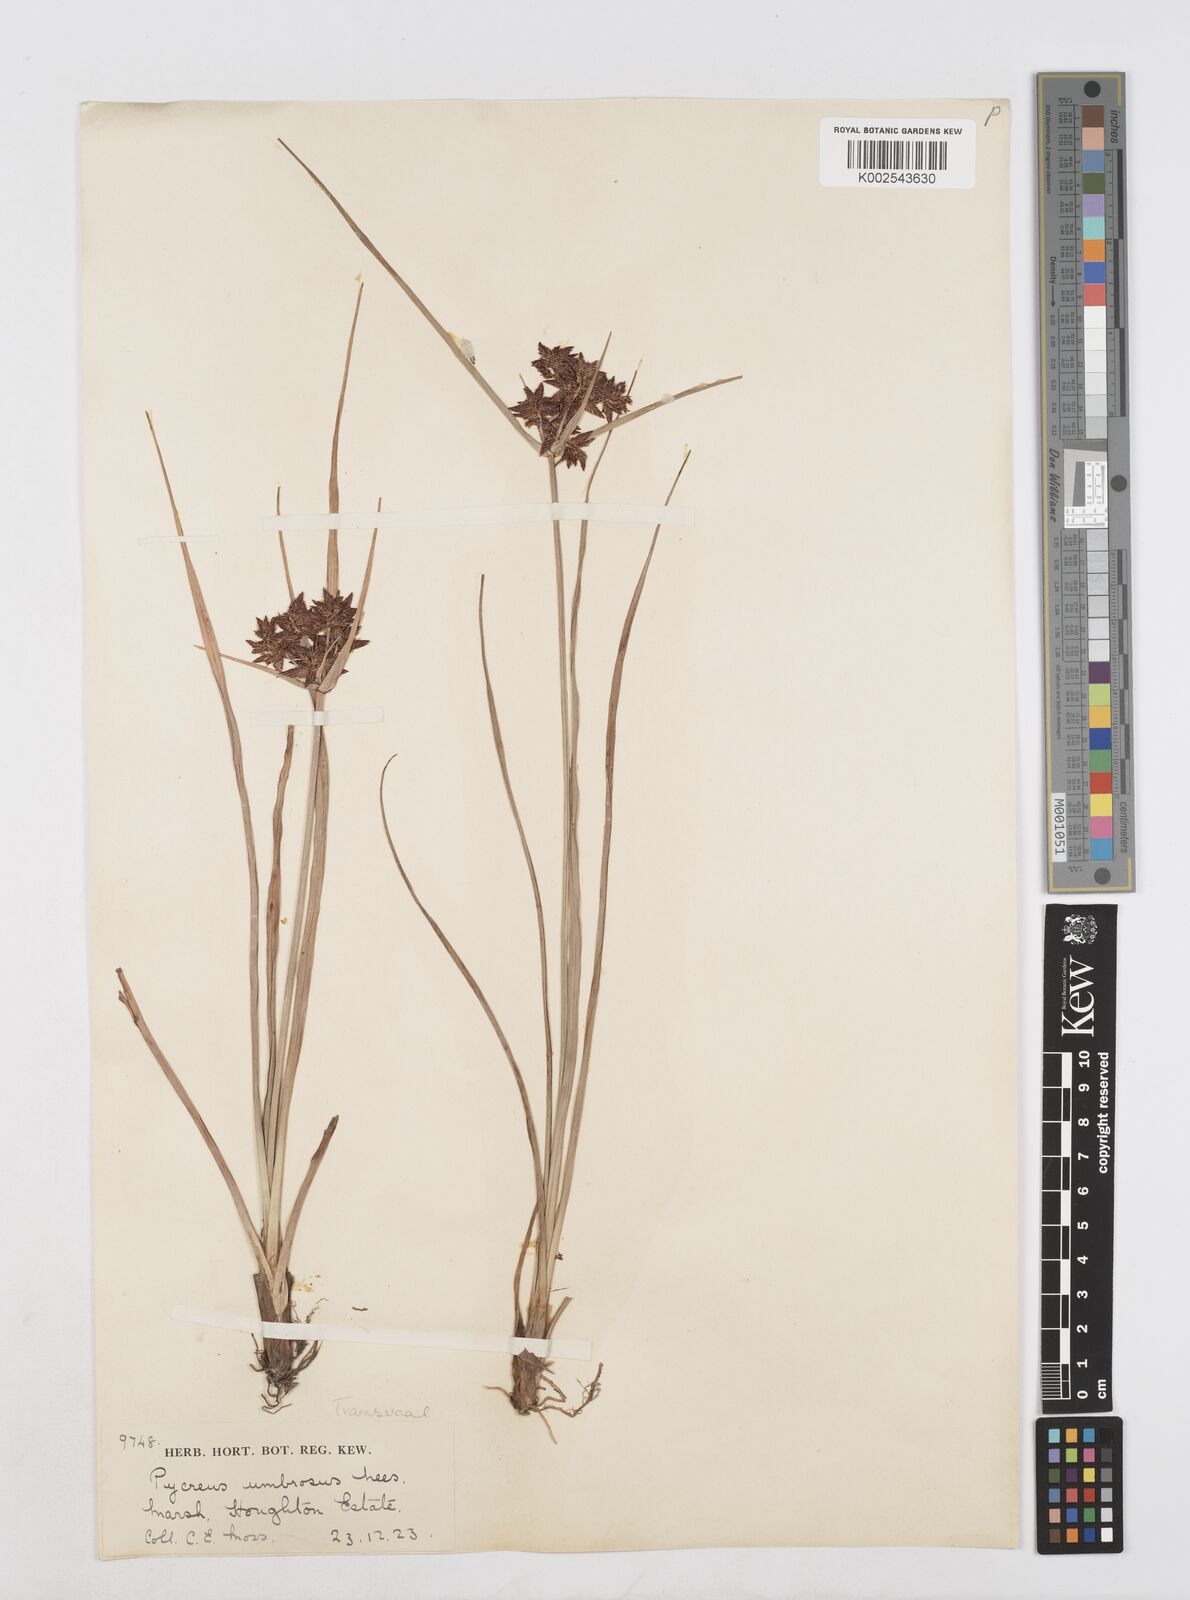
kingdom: Plantae
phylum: Tracheophyta
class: Liliopsida
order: Poales
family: Cyperaceae
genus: Cyperus
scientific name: Cyperus nitidus
